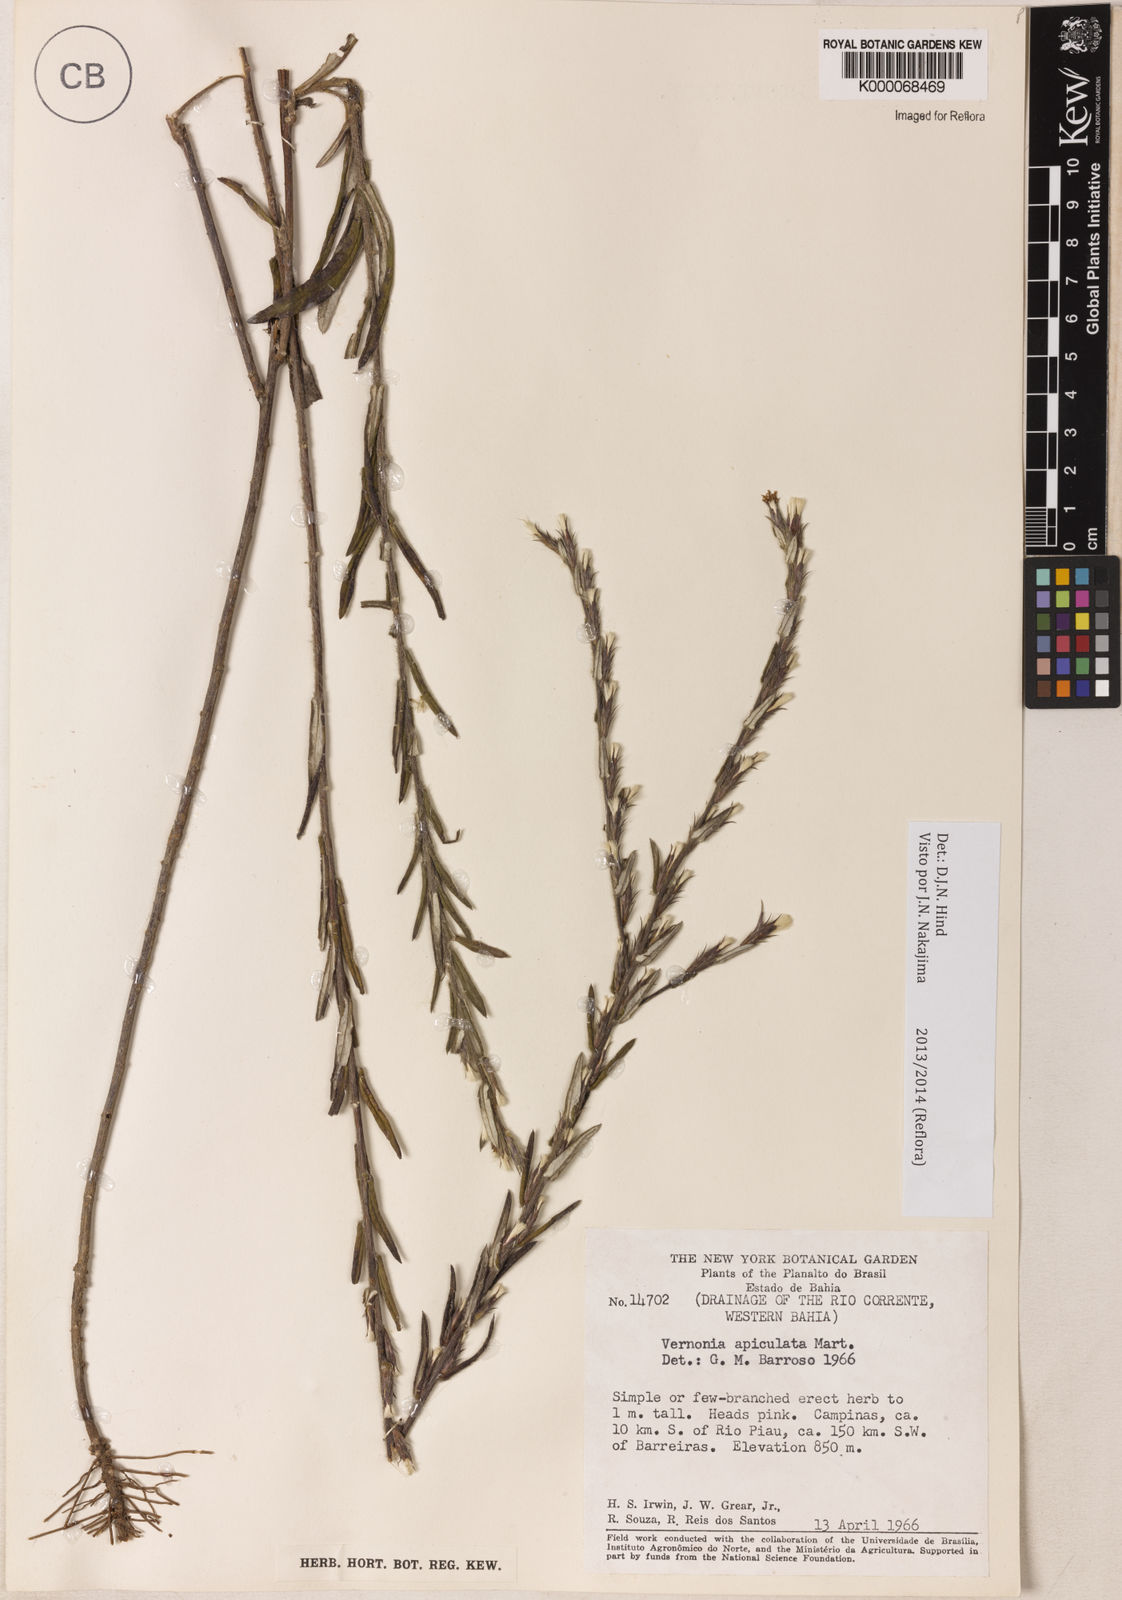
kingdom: Plantae
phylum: Tracheophyta
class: Magnoliopsida
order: Asterales
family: Asteraceae
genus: Stenocephalum
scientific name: Stenocephalum apiculatum
